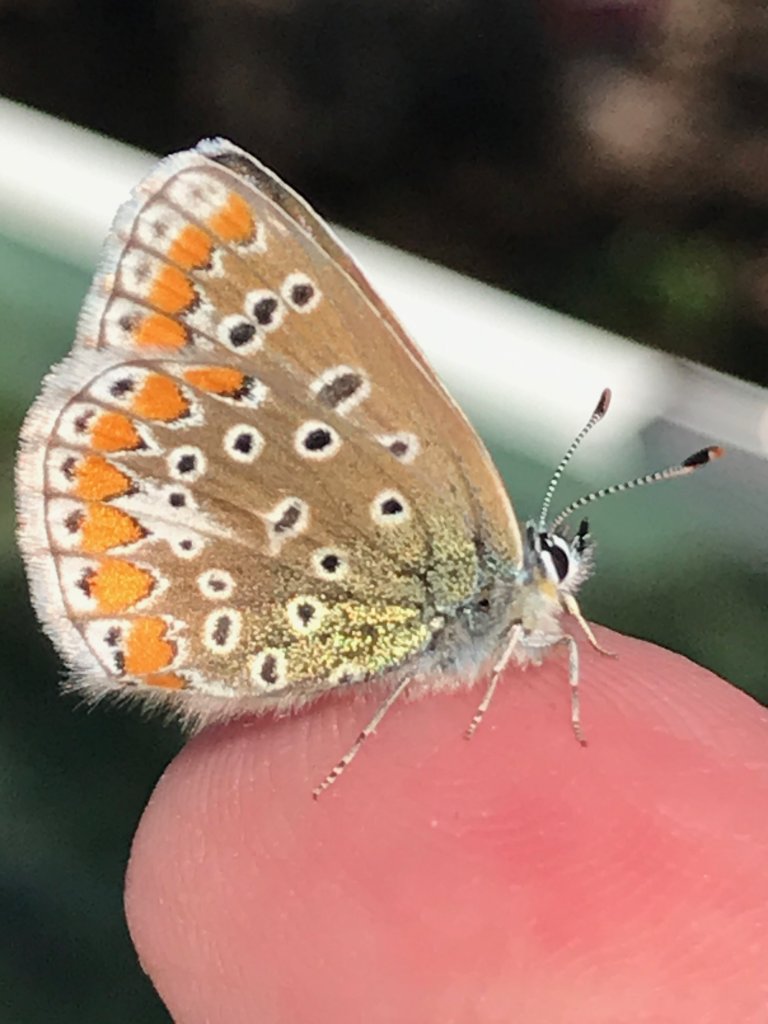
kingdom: Animalia
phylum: Arthropoda
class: Insecta
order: Lepidoptera
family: Lycaenidae
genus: Polyommatus
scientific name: Polyommatus icarus
